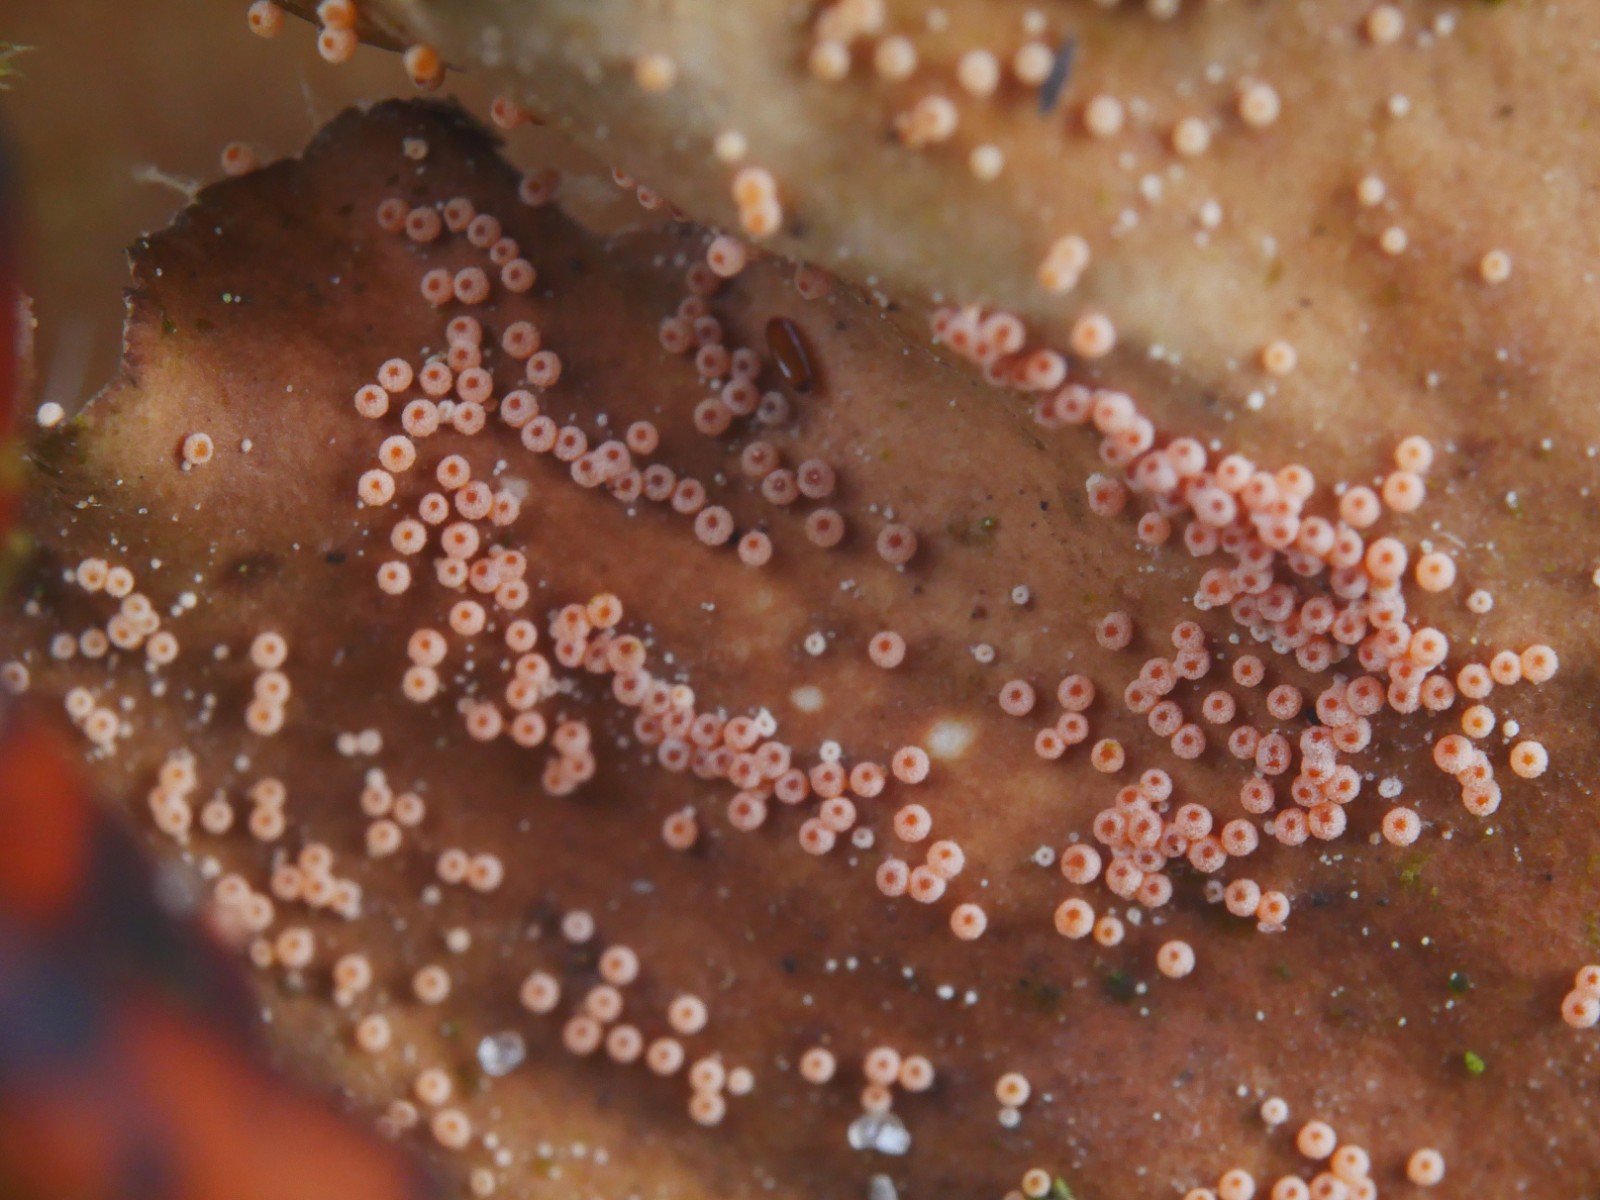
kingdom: Fungi
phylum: Ascomycota
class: Sordariomycetes
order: Hypocreales
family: Bionectriaceae
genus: Nectriopsis
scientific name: Nectriopsis lecanodes
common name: skjoldlav-gyldenkerne
